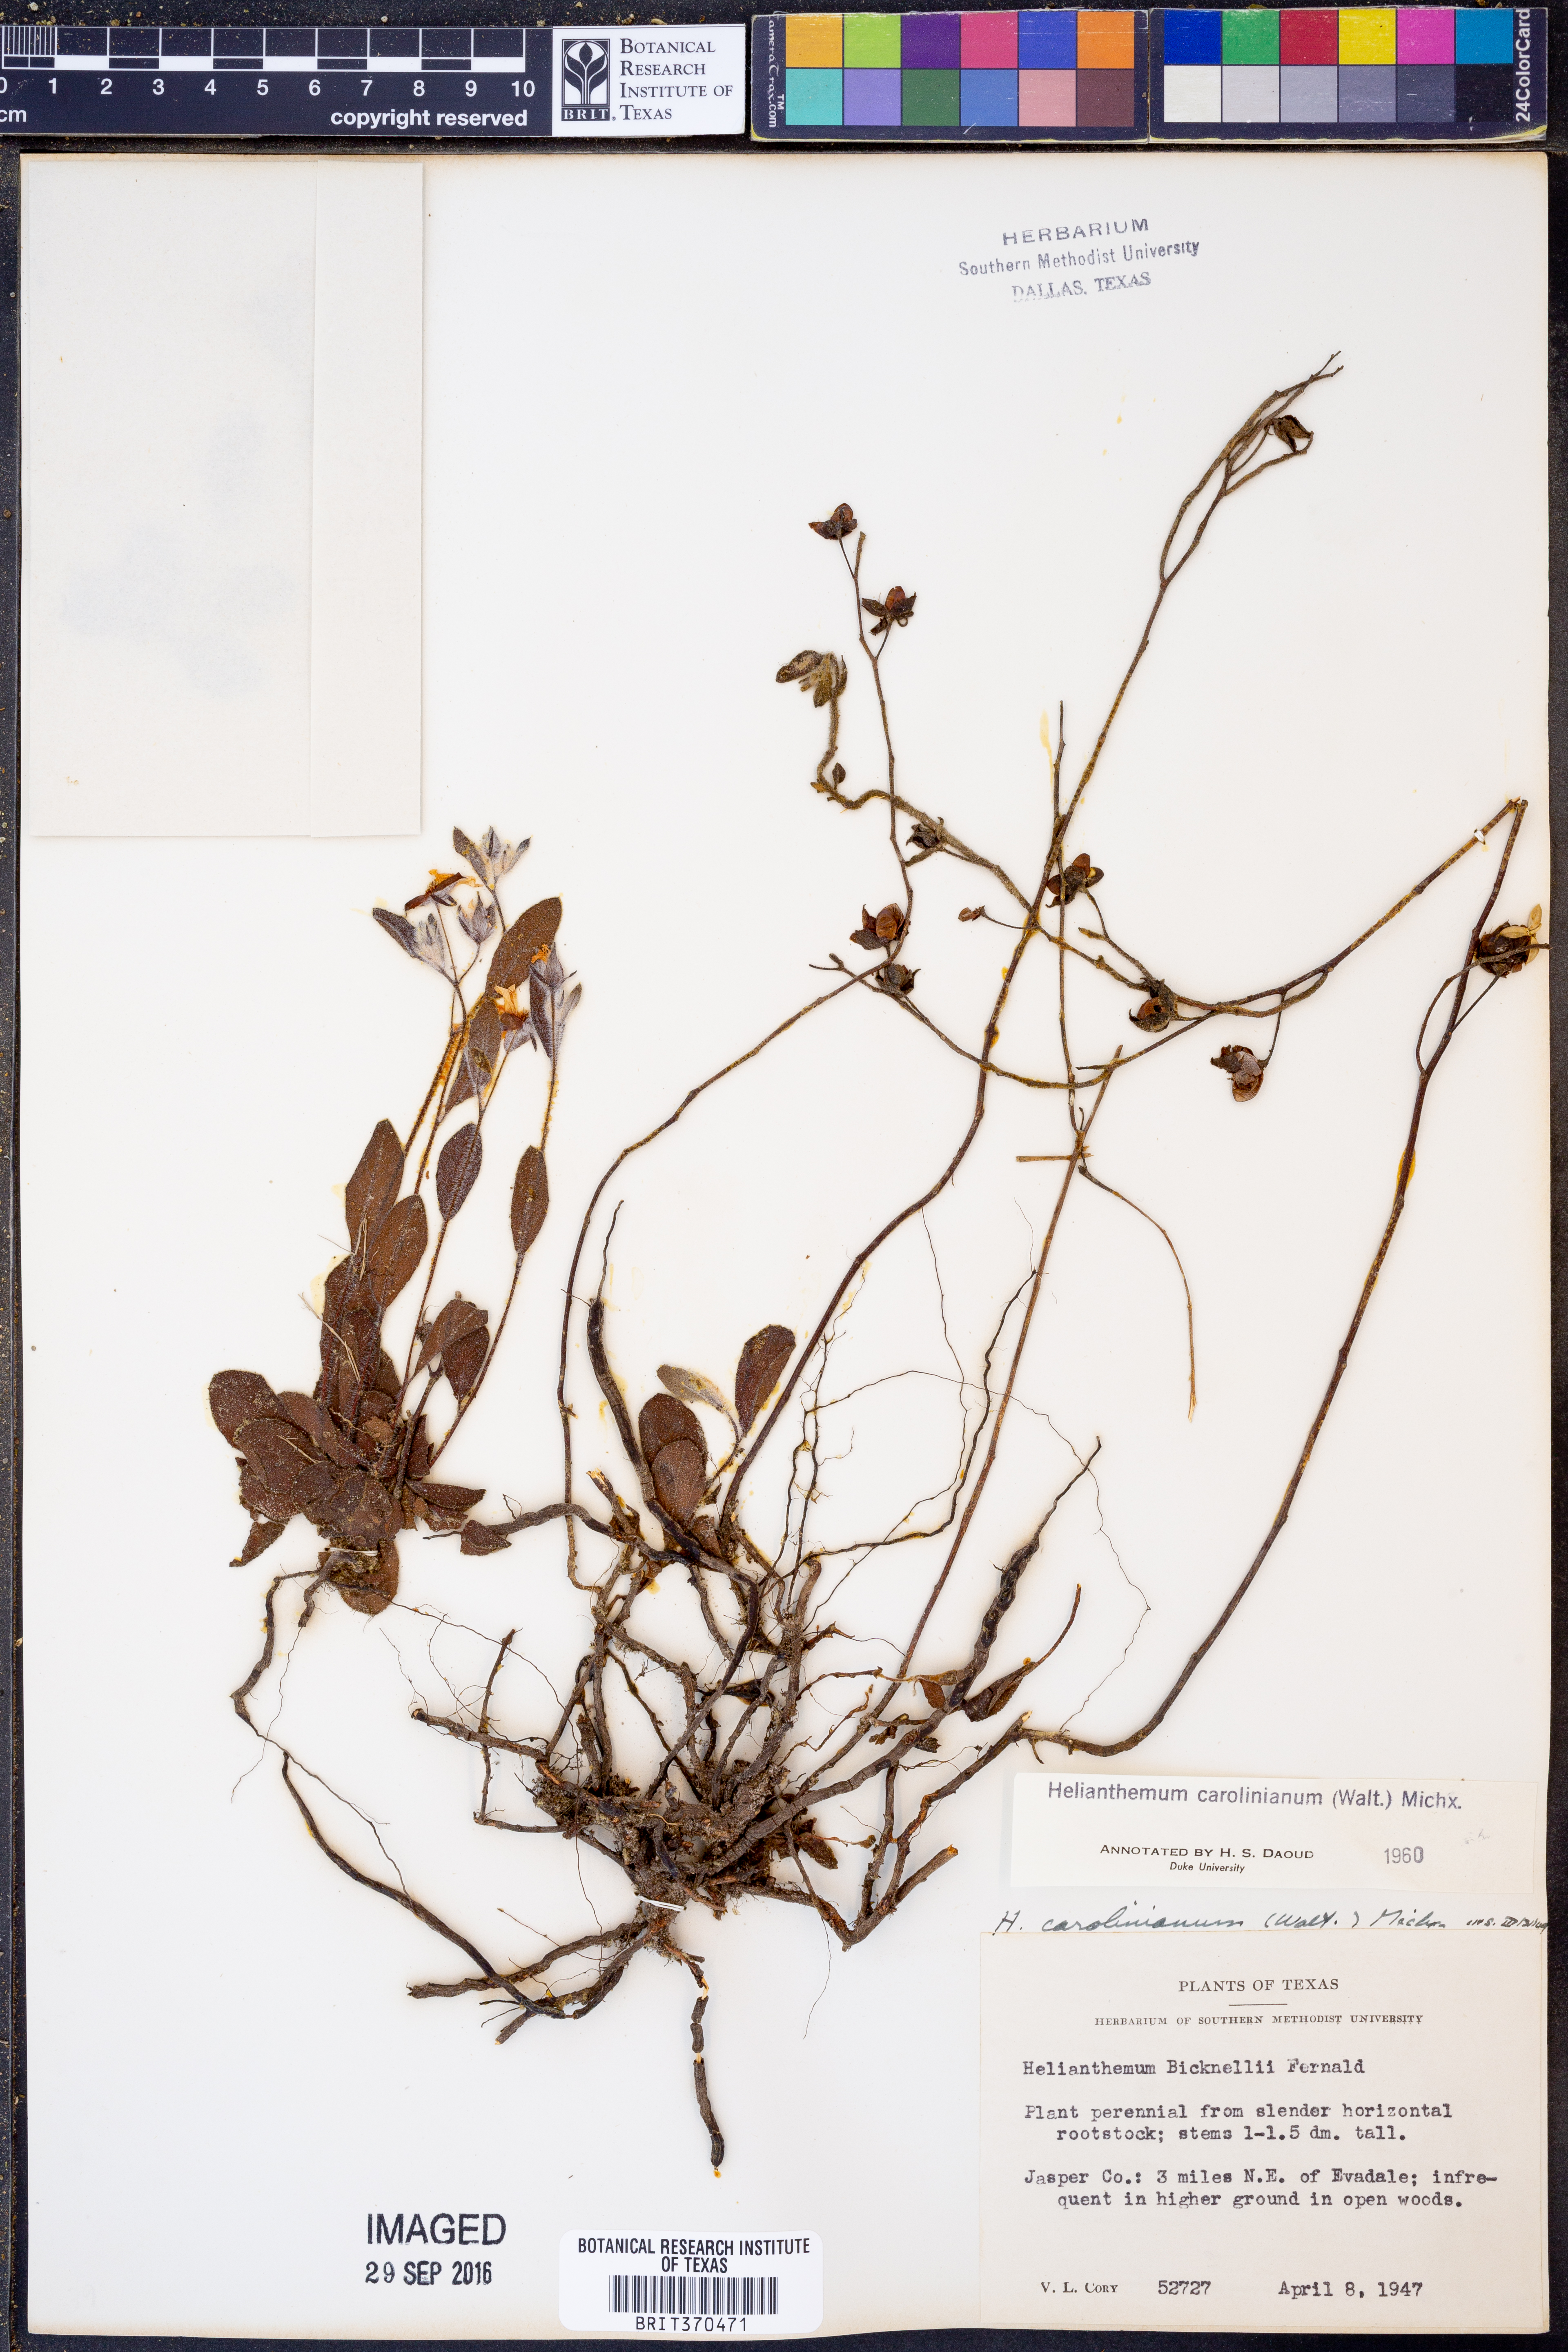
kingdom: Plantae
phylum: Tracheophyta
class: Magnoliopsida
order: Malvales
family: Cistaceae
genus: Crocanthemum
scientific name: Crocanthemum carolinianum
